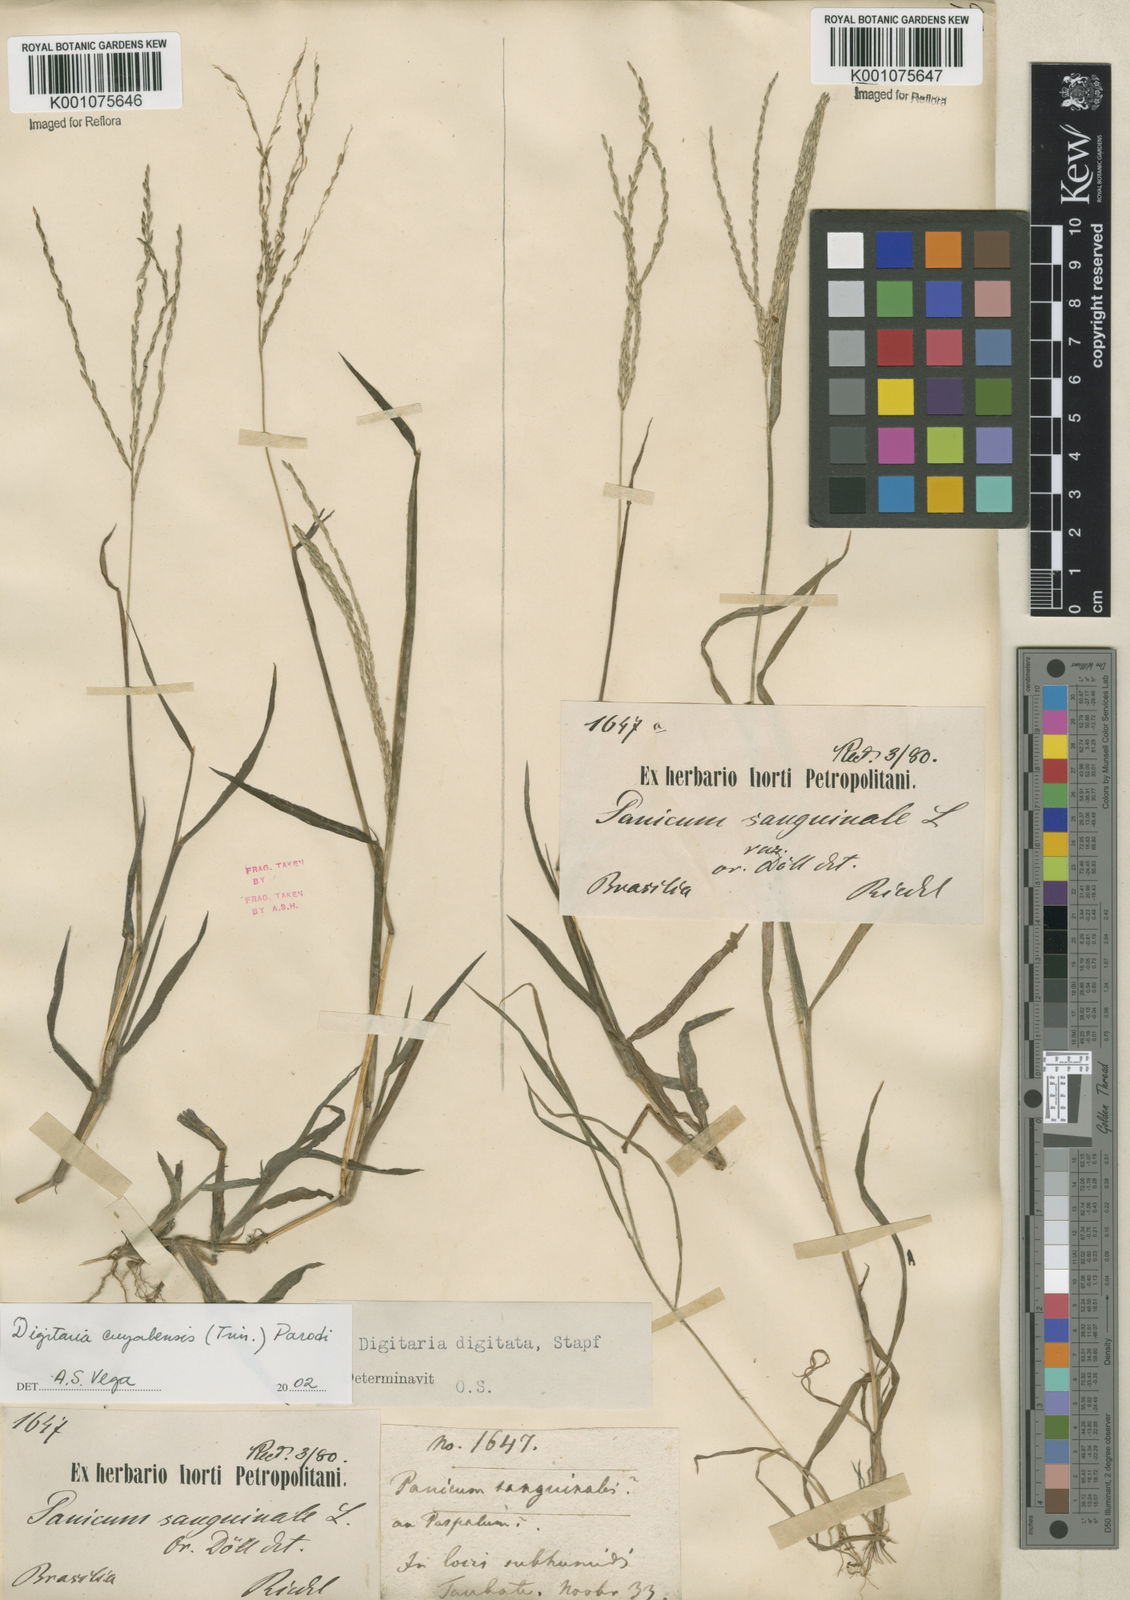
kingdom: Plantae
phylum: Tracheophyta
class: Liliopsida
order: Poales
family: Poaceae
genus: Digitaria
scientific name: Digitaria cuyabensis
